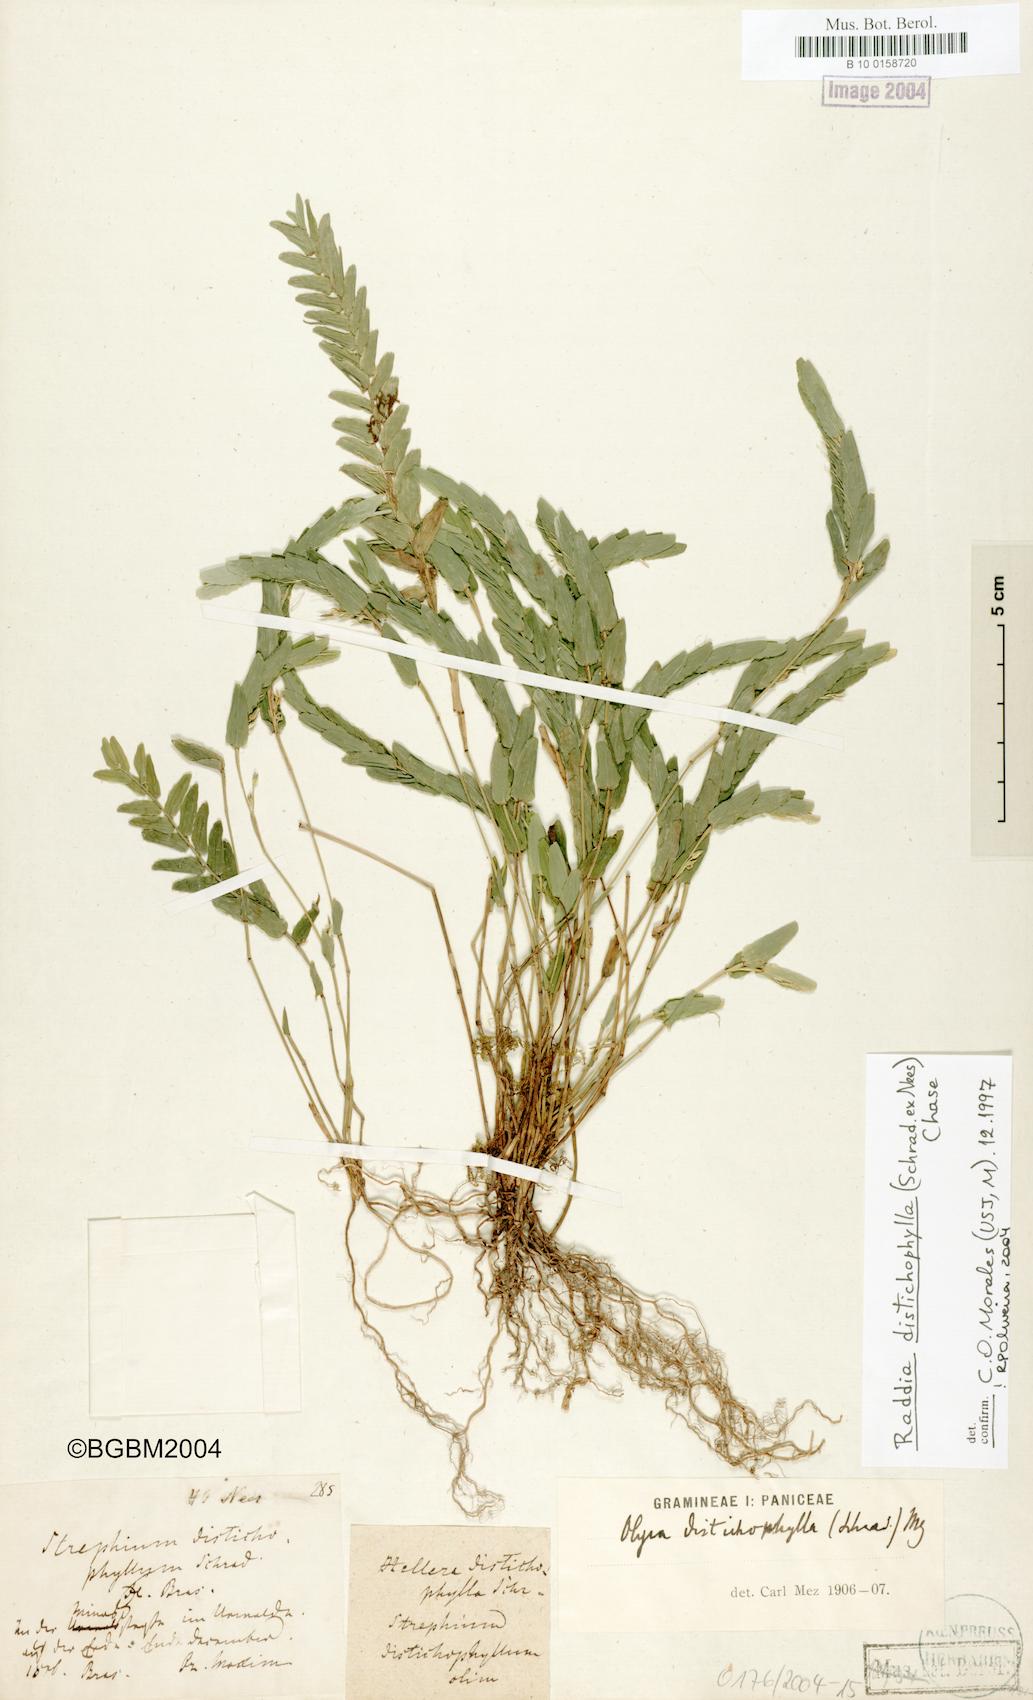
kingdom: Plantae
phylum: Tracheophyta
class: Liliopsida
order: Poales
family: Poaceae
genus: Raddia
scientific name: Raddia distichophylla
